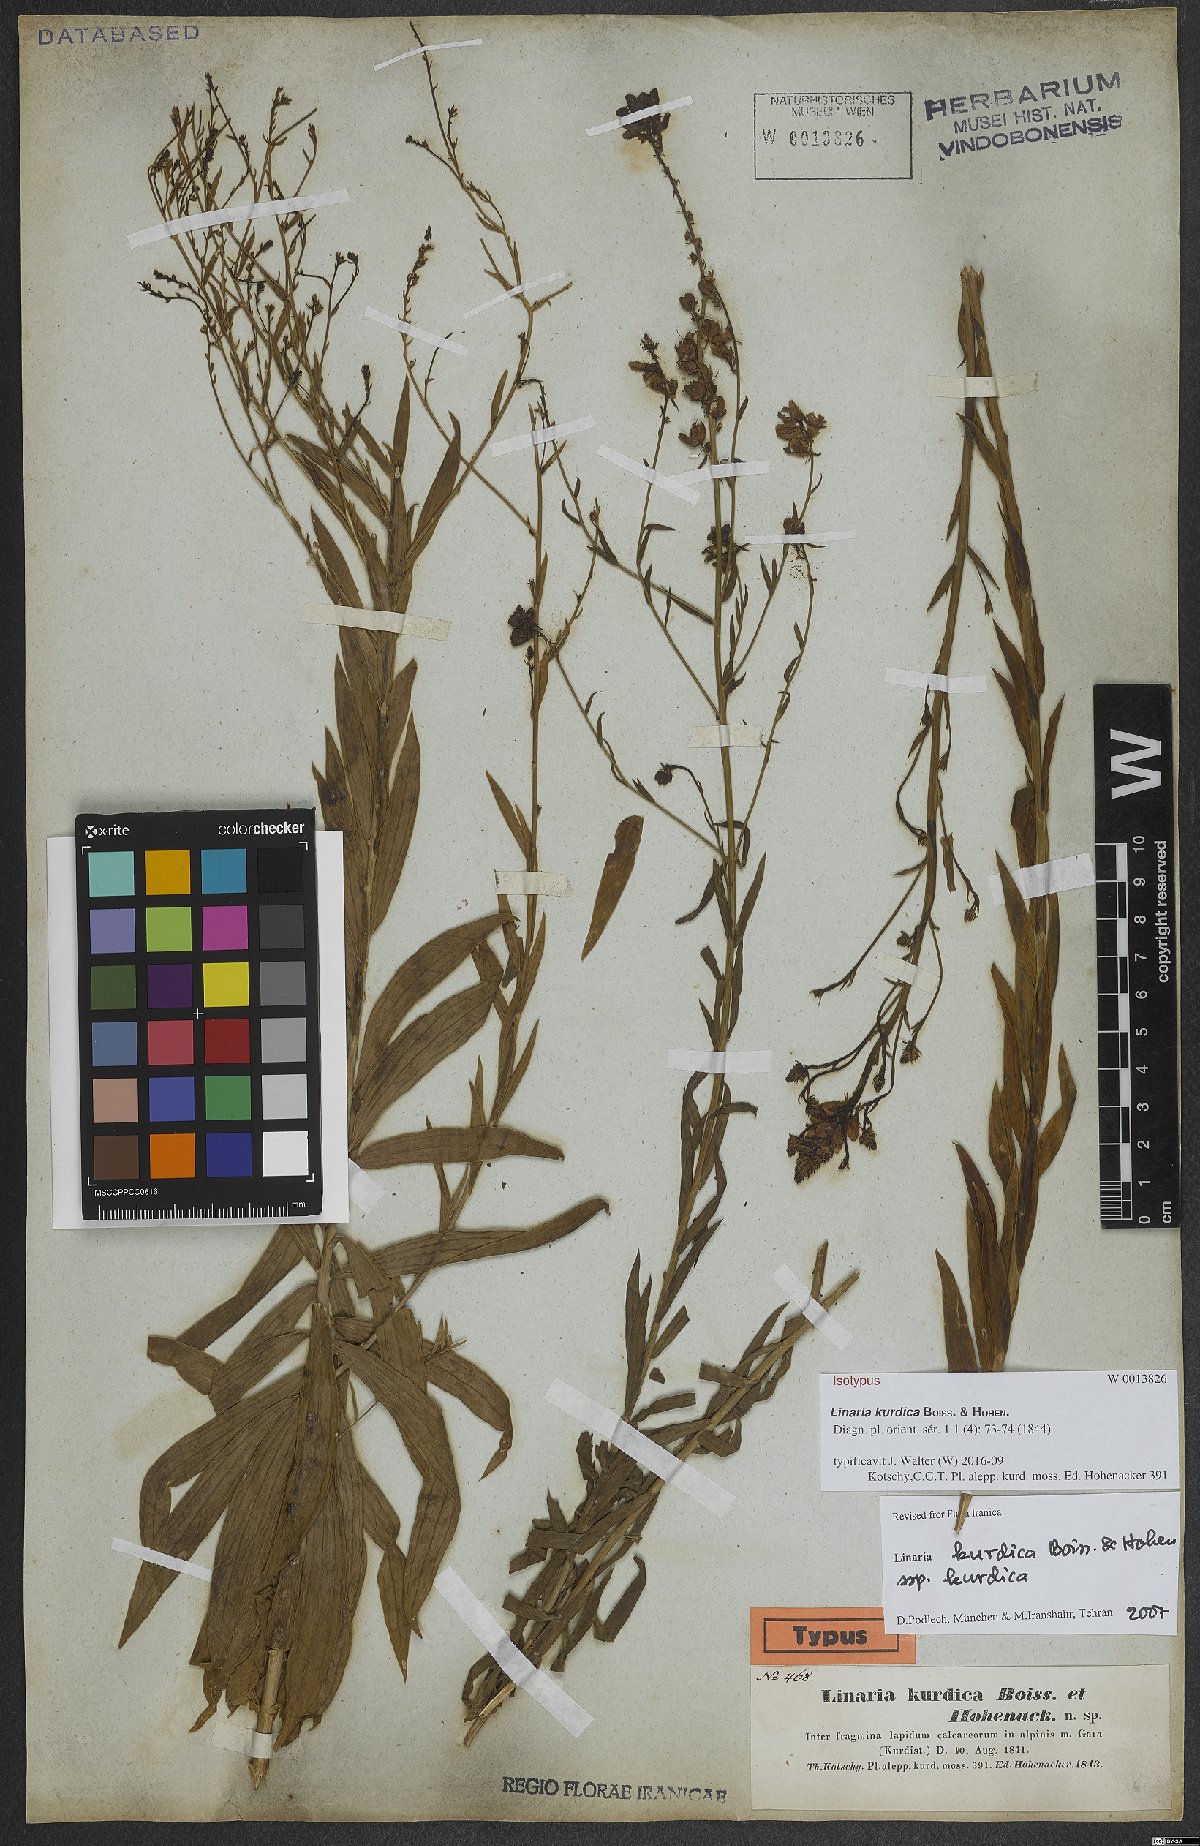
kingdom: Plantae
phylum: Tracheophyta
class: Magnoliopsida
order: Lamiales
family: Plantaginaceae
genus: Linaria
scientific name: Linaria kurdica
